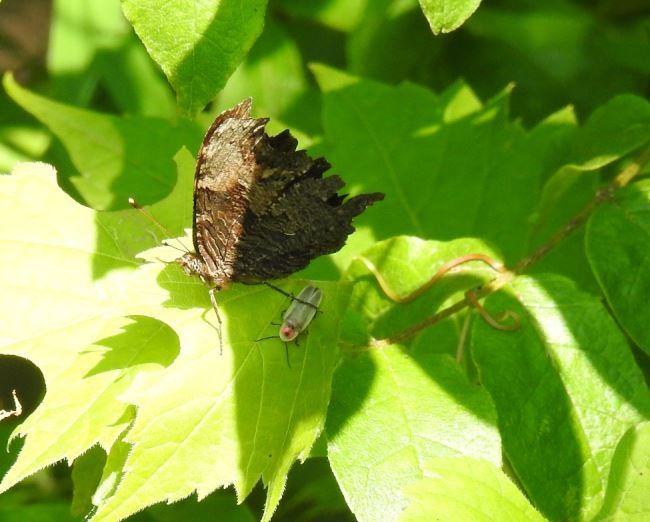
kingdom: Animalia
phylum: Arthropoda
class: Insecta
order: Lepidoptera
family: Nymphalidae
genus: Polygonia
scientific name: Polygonia progne
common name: Gray Comma
